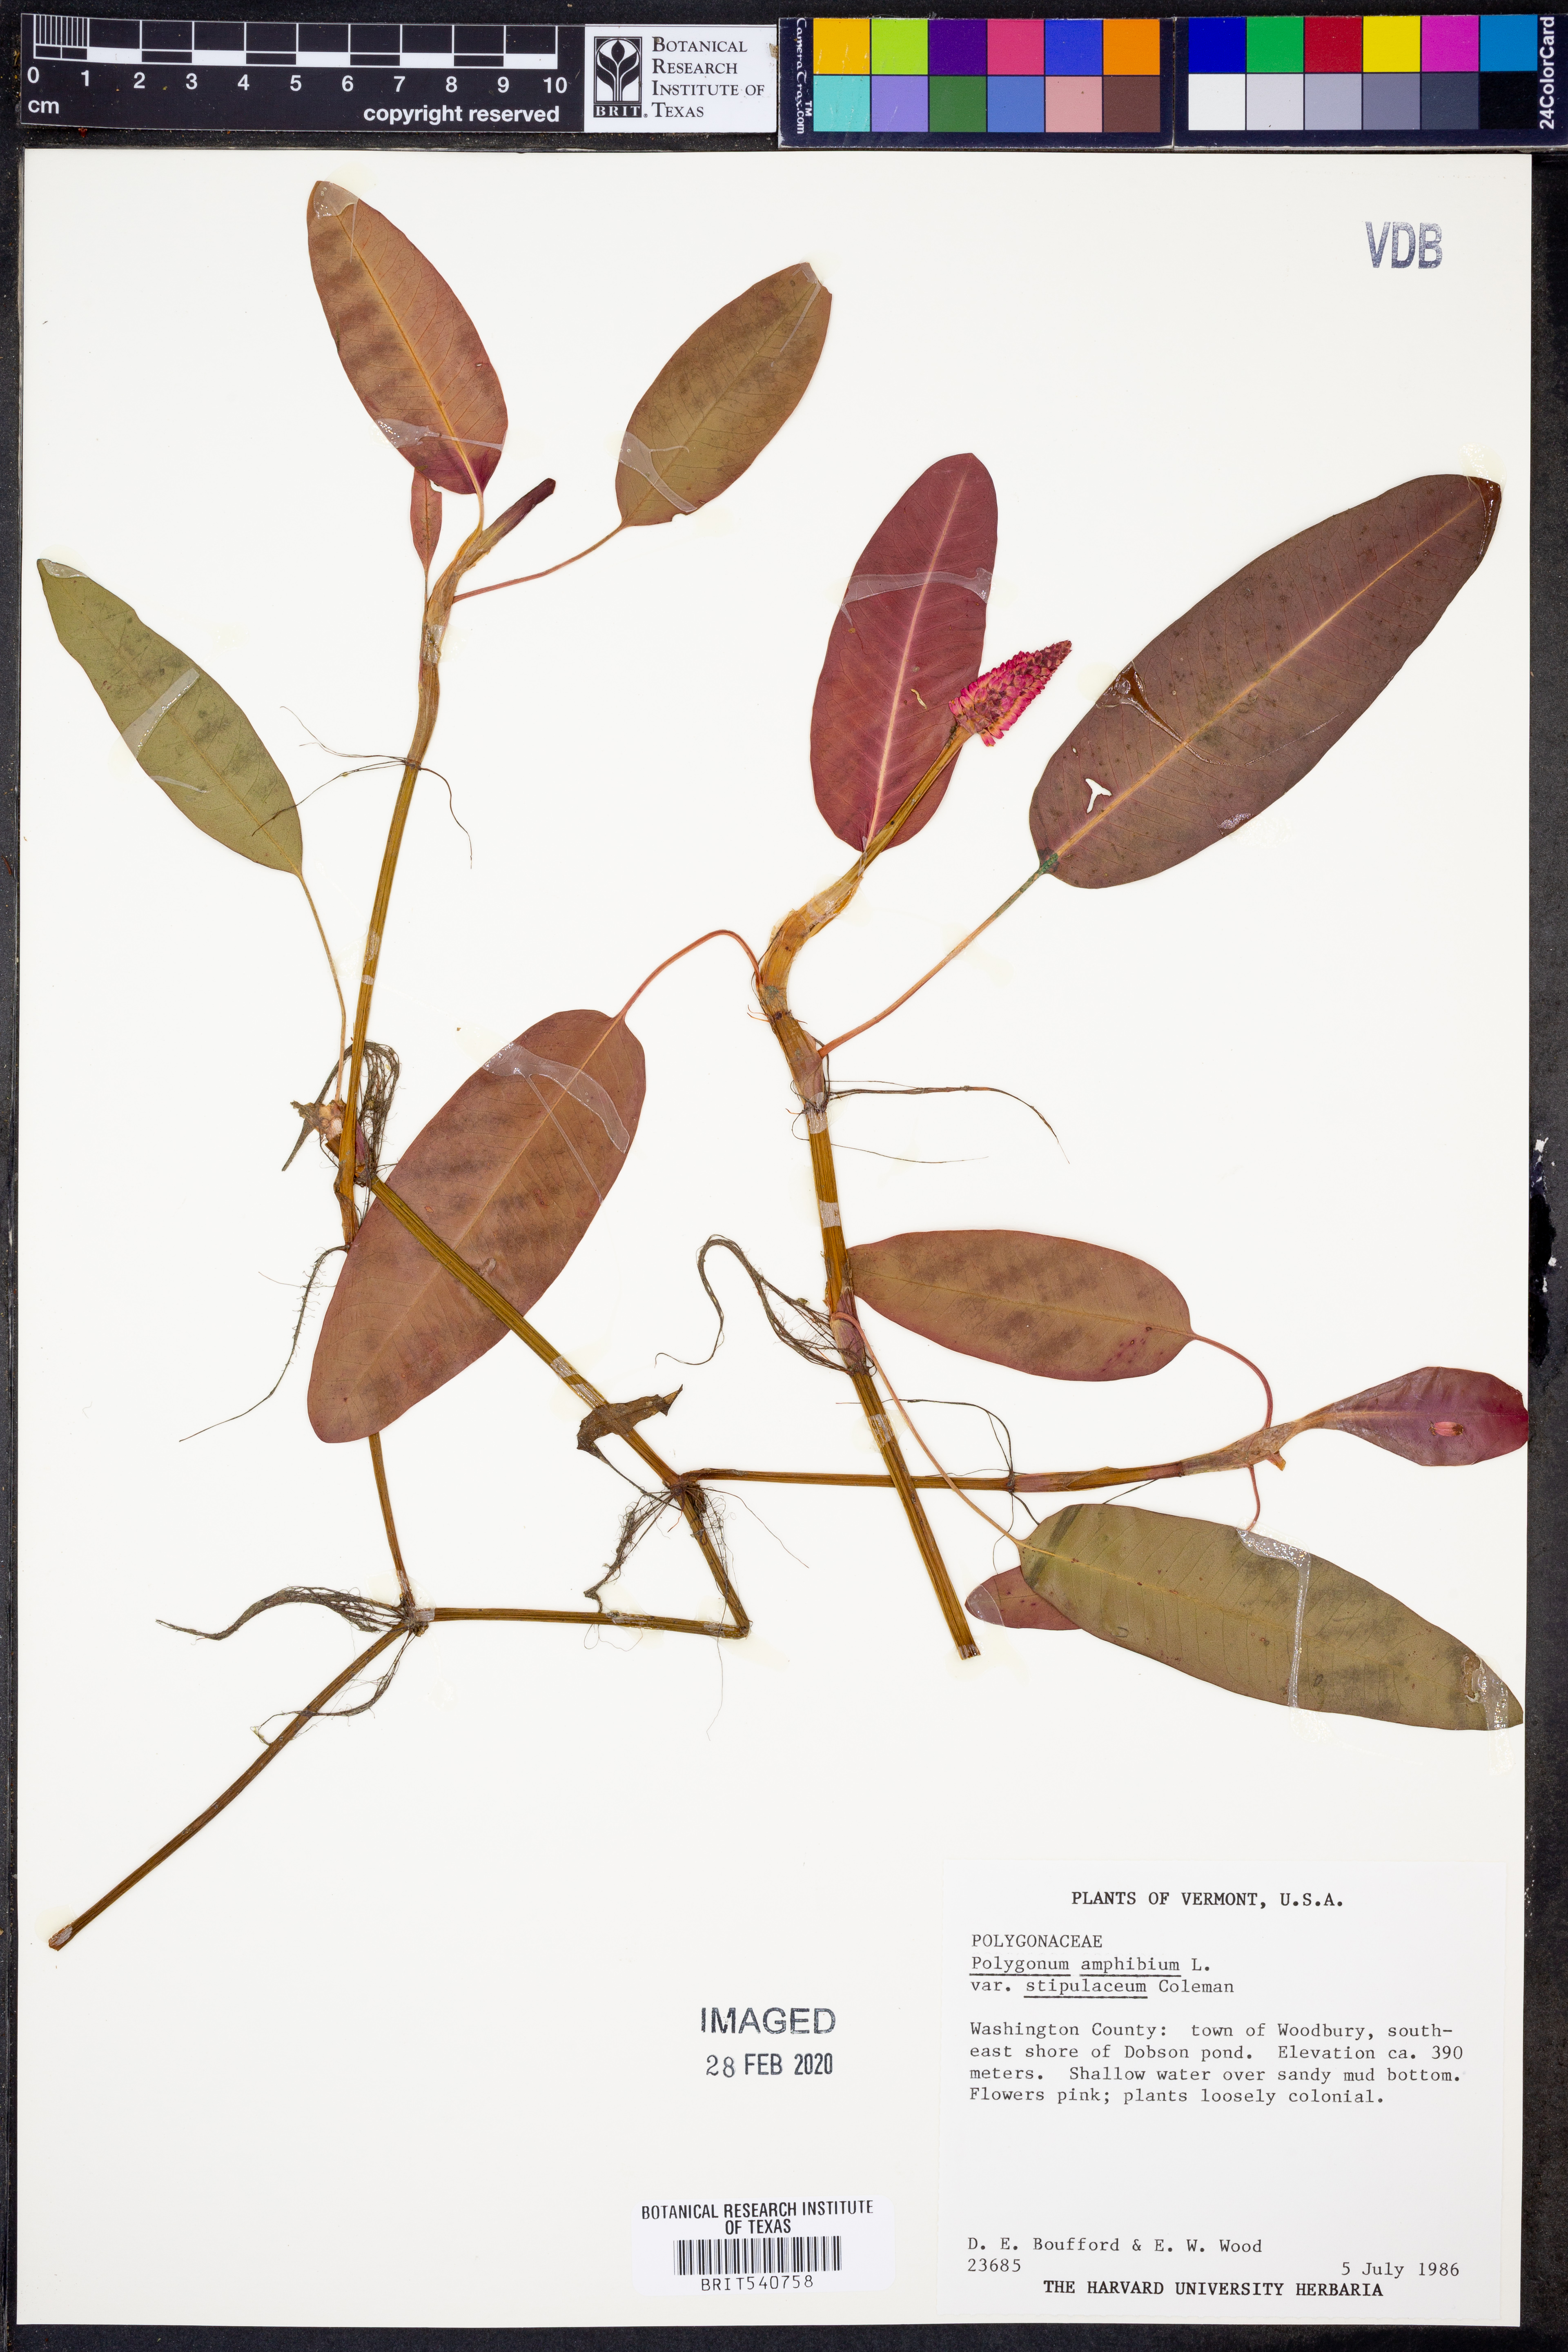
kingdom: Plantae
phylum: Tracheophyta
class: Magnoliopsida
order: Caryophyllales
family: Polygonaceae
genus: Persicaria
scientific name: Persicaria amphibia
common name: Amphibious bistort
